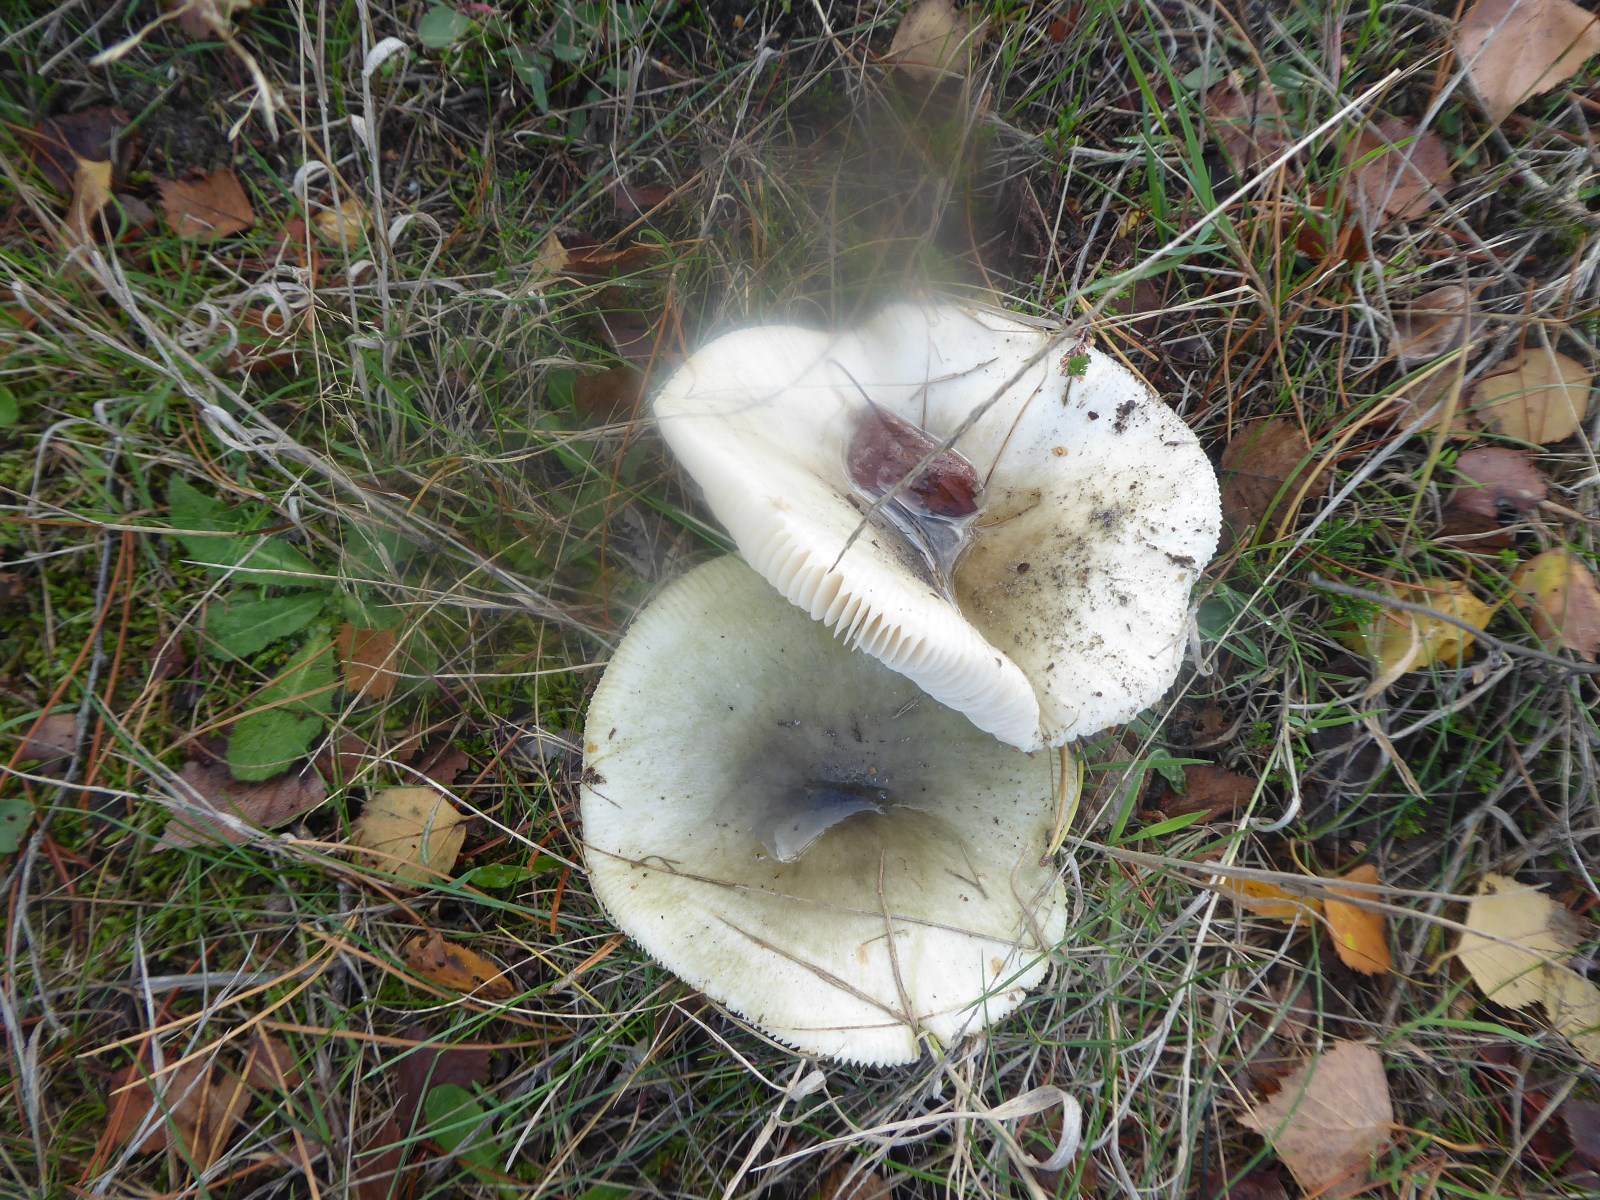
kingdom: Fungi
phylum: Basidiomycota
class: Agaricomycetes
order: Russulales
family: Russulaceae
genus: Russula
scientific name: Russula aeruginea
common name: græsgrøn skørhat
